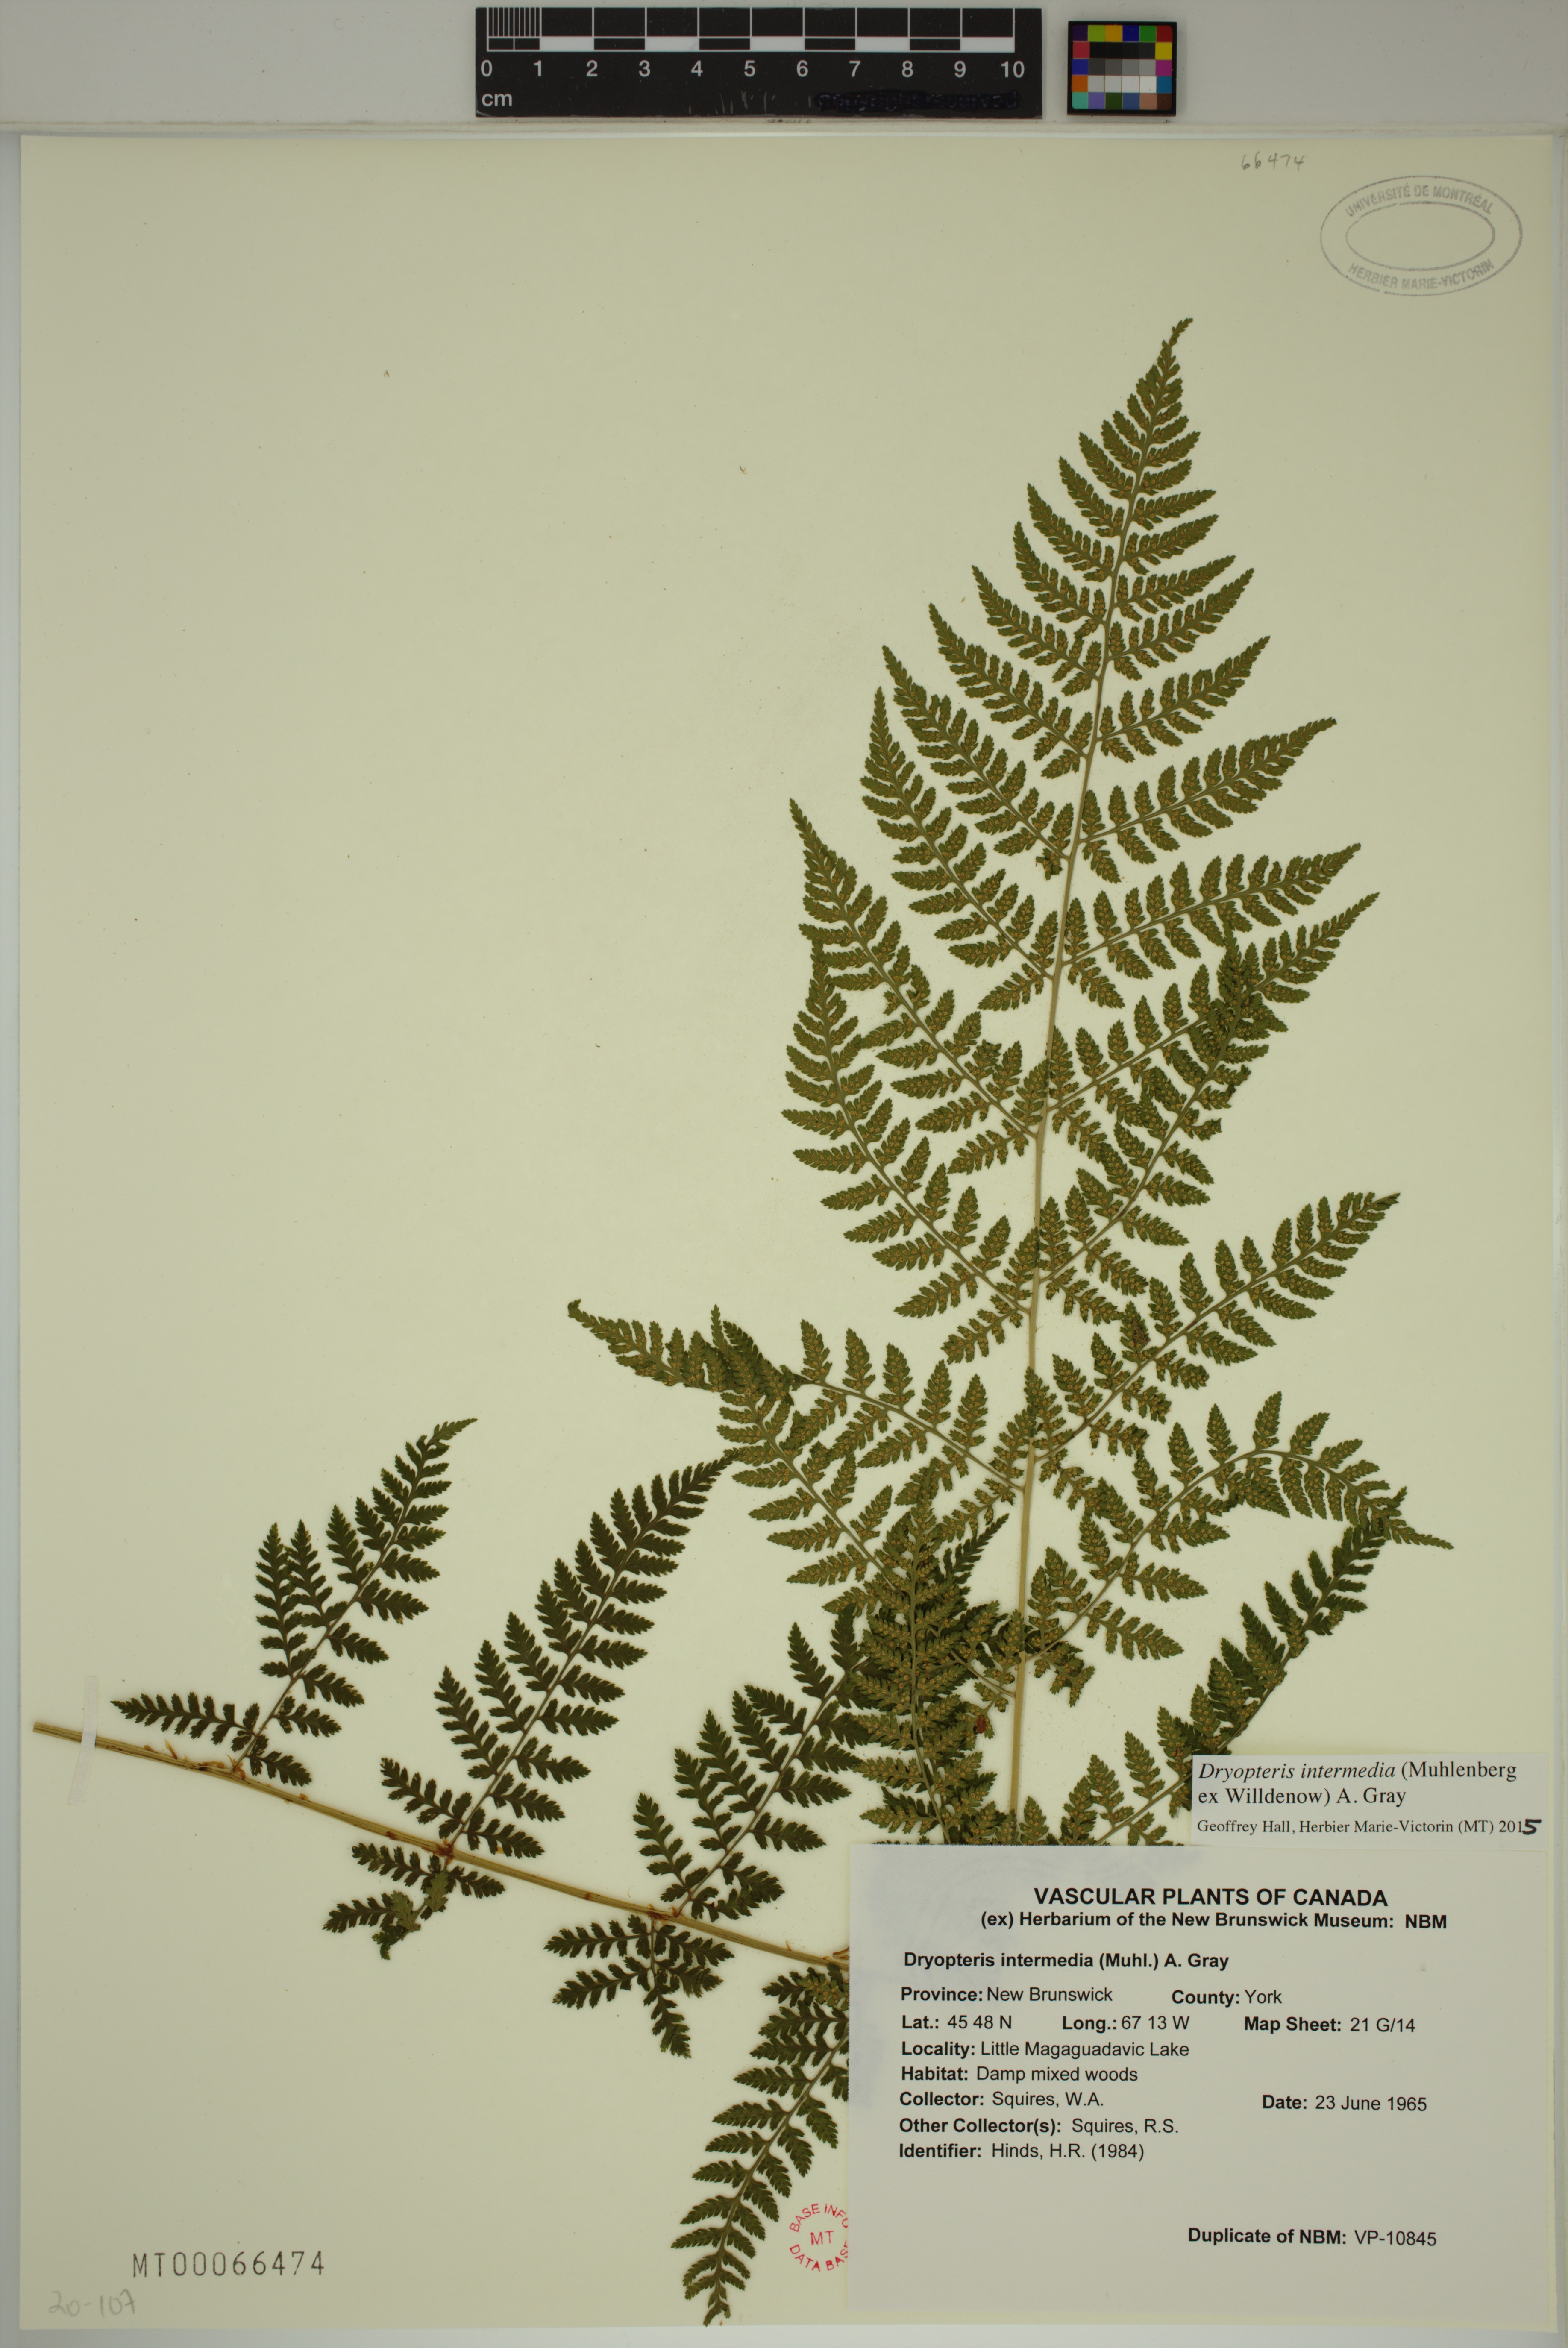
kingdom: Plantae
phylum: Tracheophyta
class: Polypodiopsida
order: Polypodiales
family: Dryopteridaceae
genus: Dryopteris
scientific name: Dryopteris intermedia
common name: Evergreen wood fern
